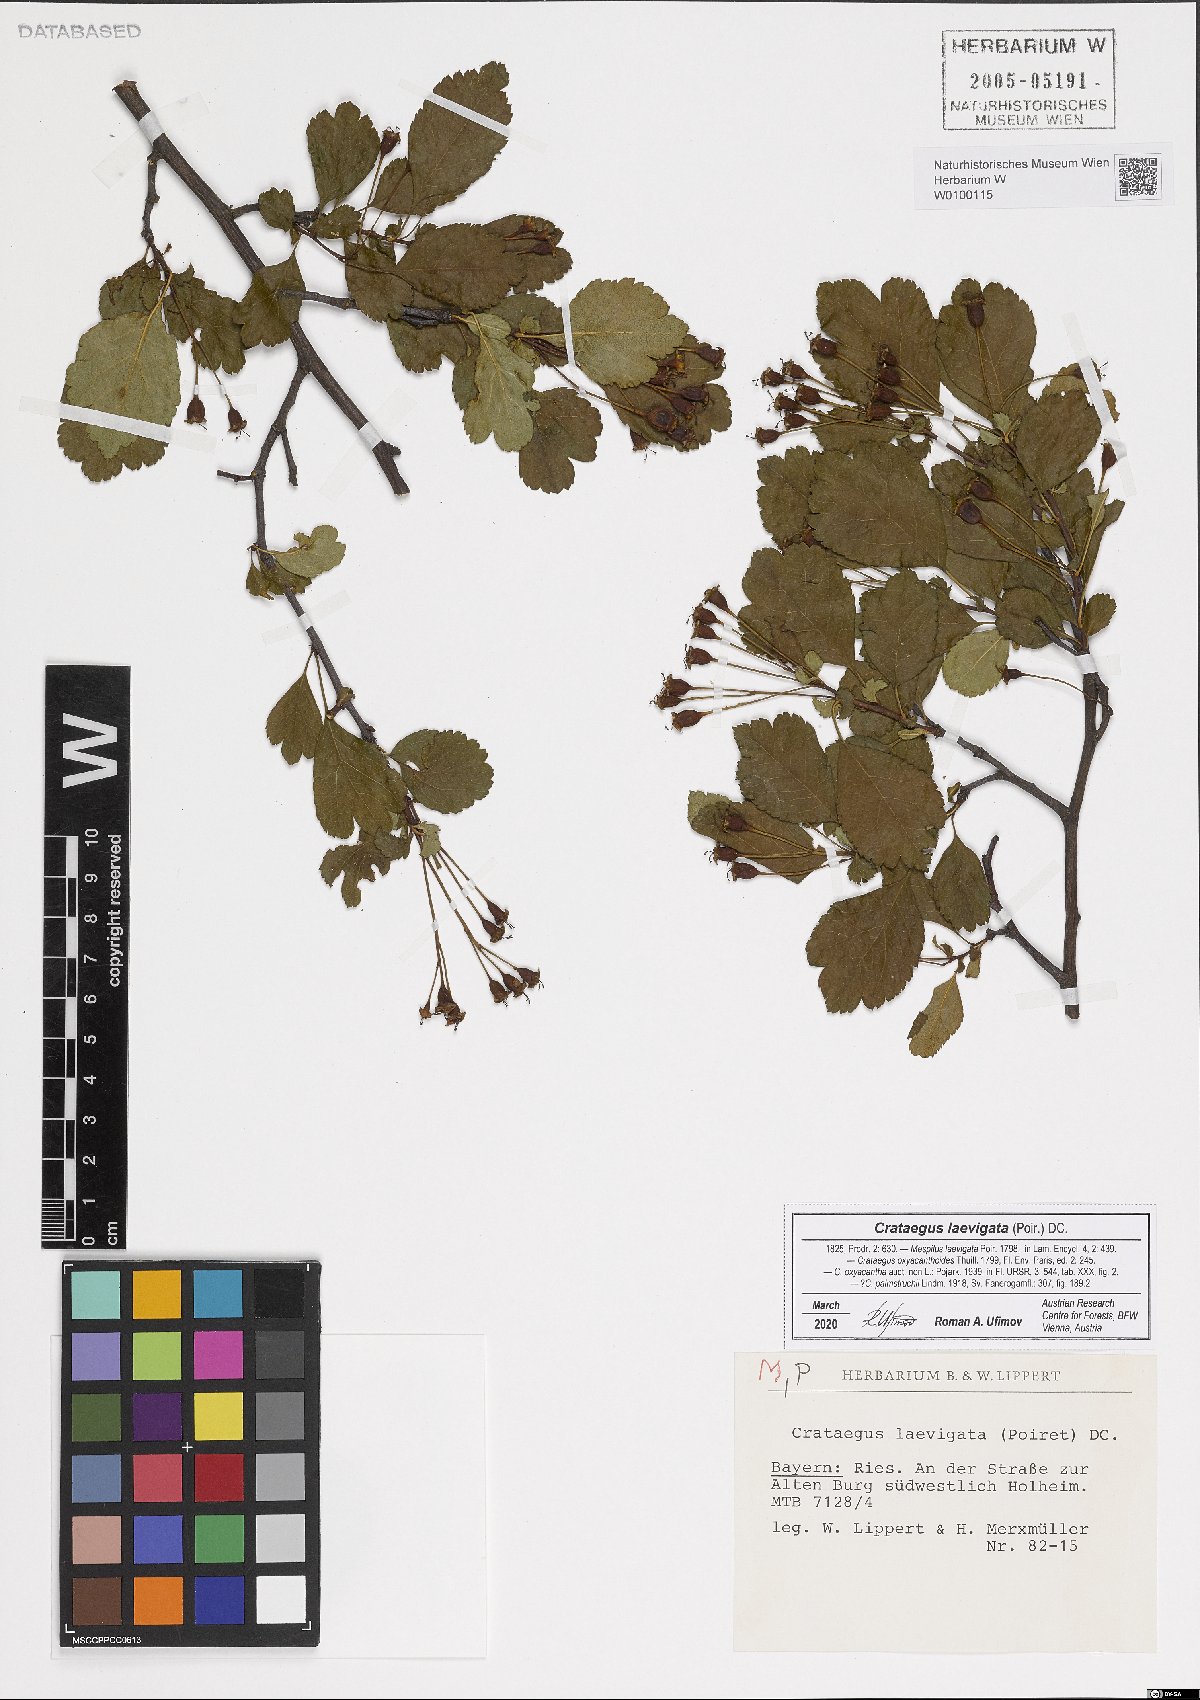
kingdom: Plantae
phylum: Tracheophyta
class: Magnoliopsida
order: Rosales
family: Rosaceae
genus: Crataegus
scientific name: Crataegus laevigata
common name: Midland hawthorn
